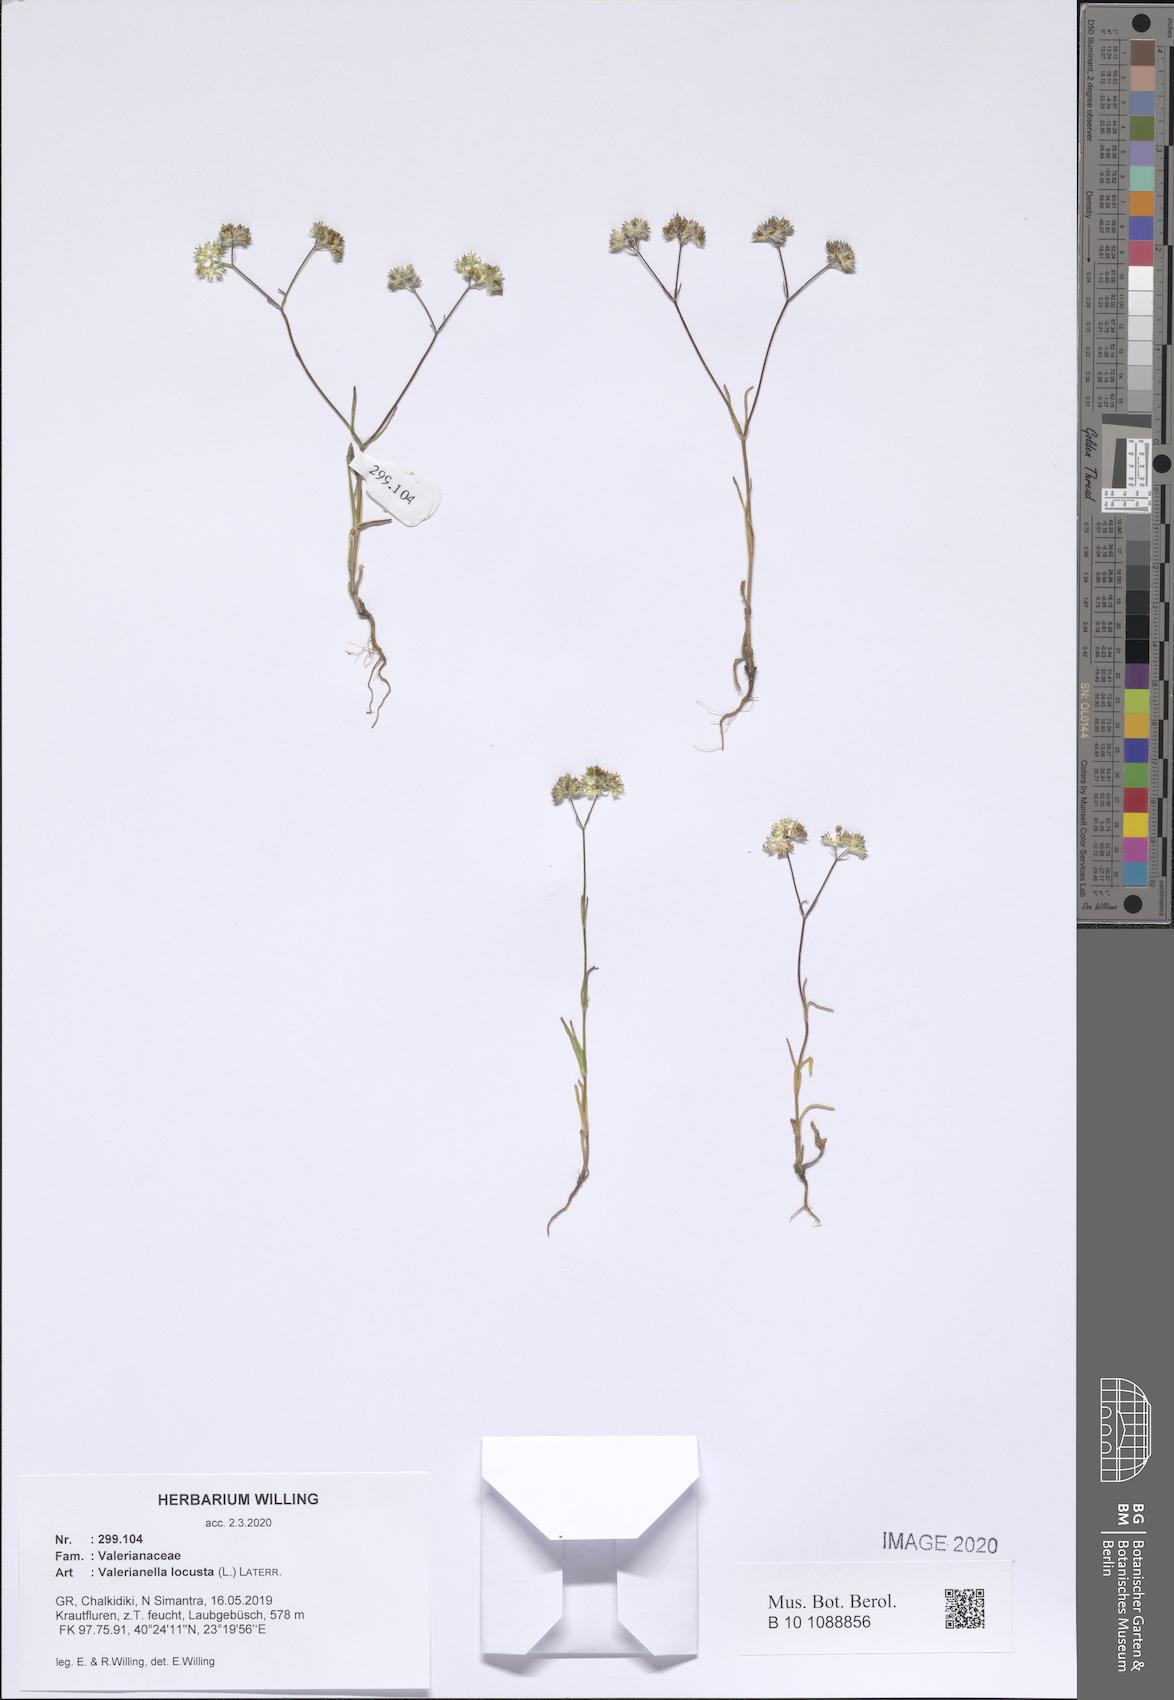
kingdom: Plantae
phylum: Tracheophyta
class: Magnoliopsida
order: Dipsacales
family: Caprifoliaceae
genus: Valerianella
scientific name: Valerianella locusta
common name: Common cornsalad
